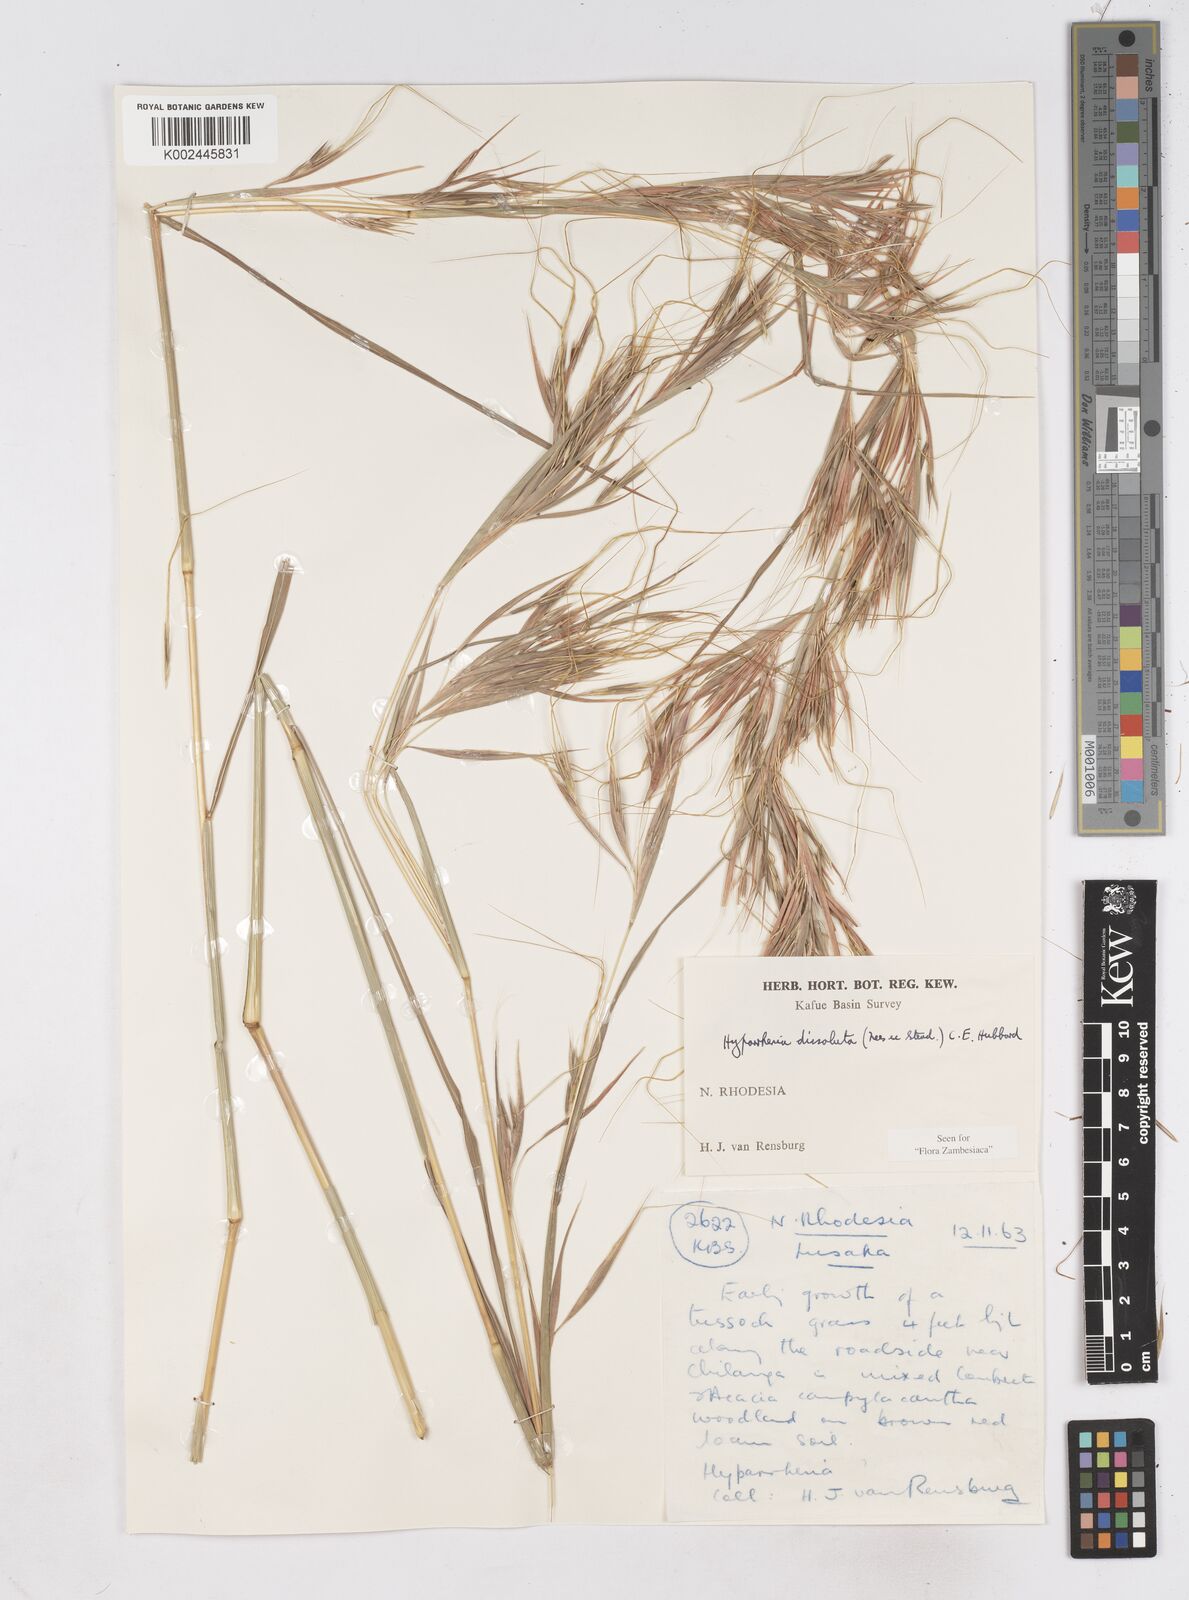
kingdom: Plantae
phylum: Tracheophyta
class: Liliopsida
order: Poales
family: Poaceae
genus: Hyperthelia
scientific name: Hyperthelia dissoluta
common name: Yellow thatching grass
